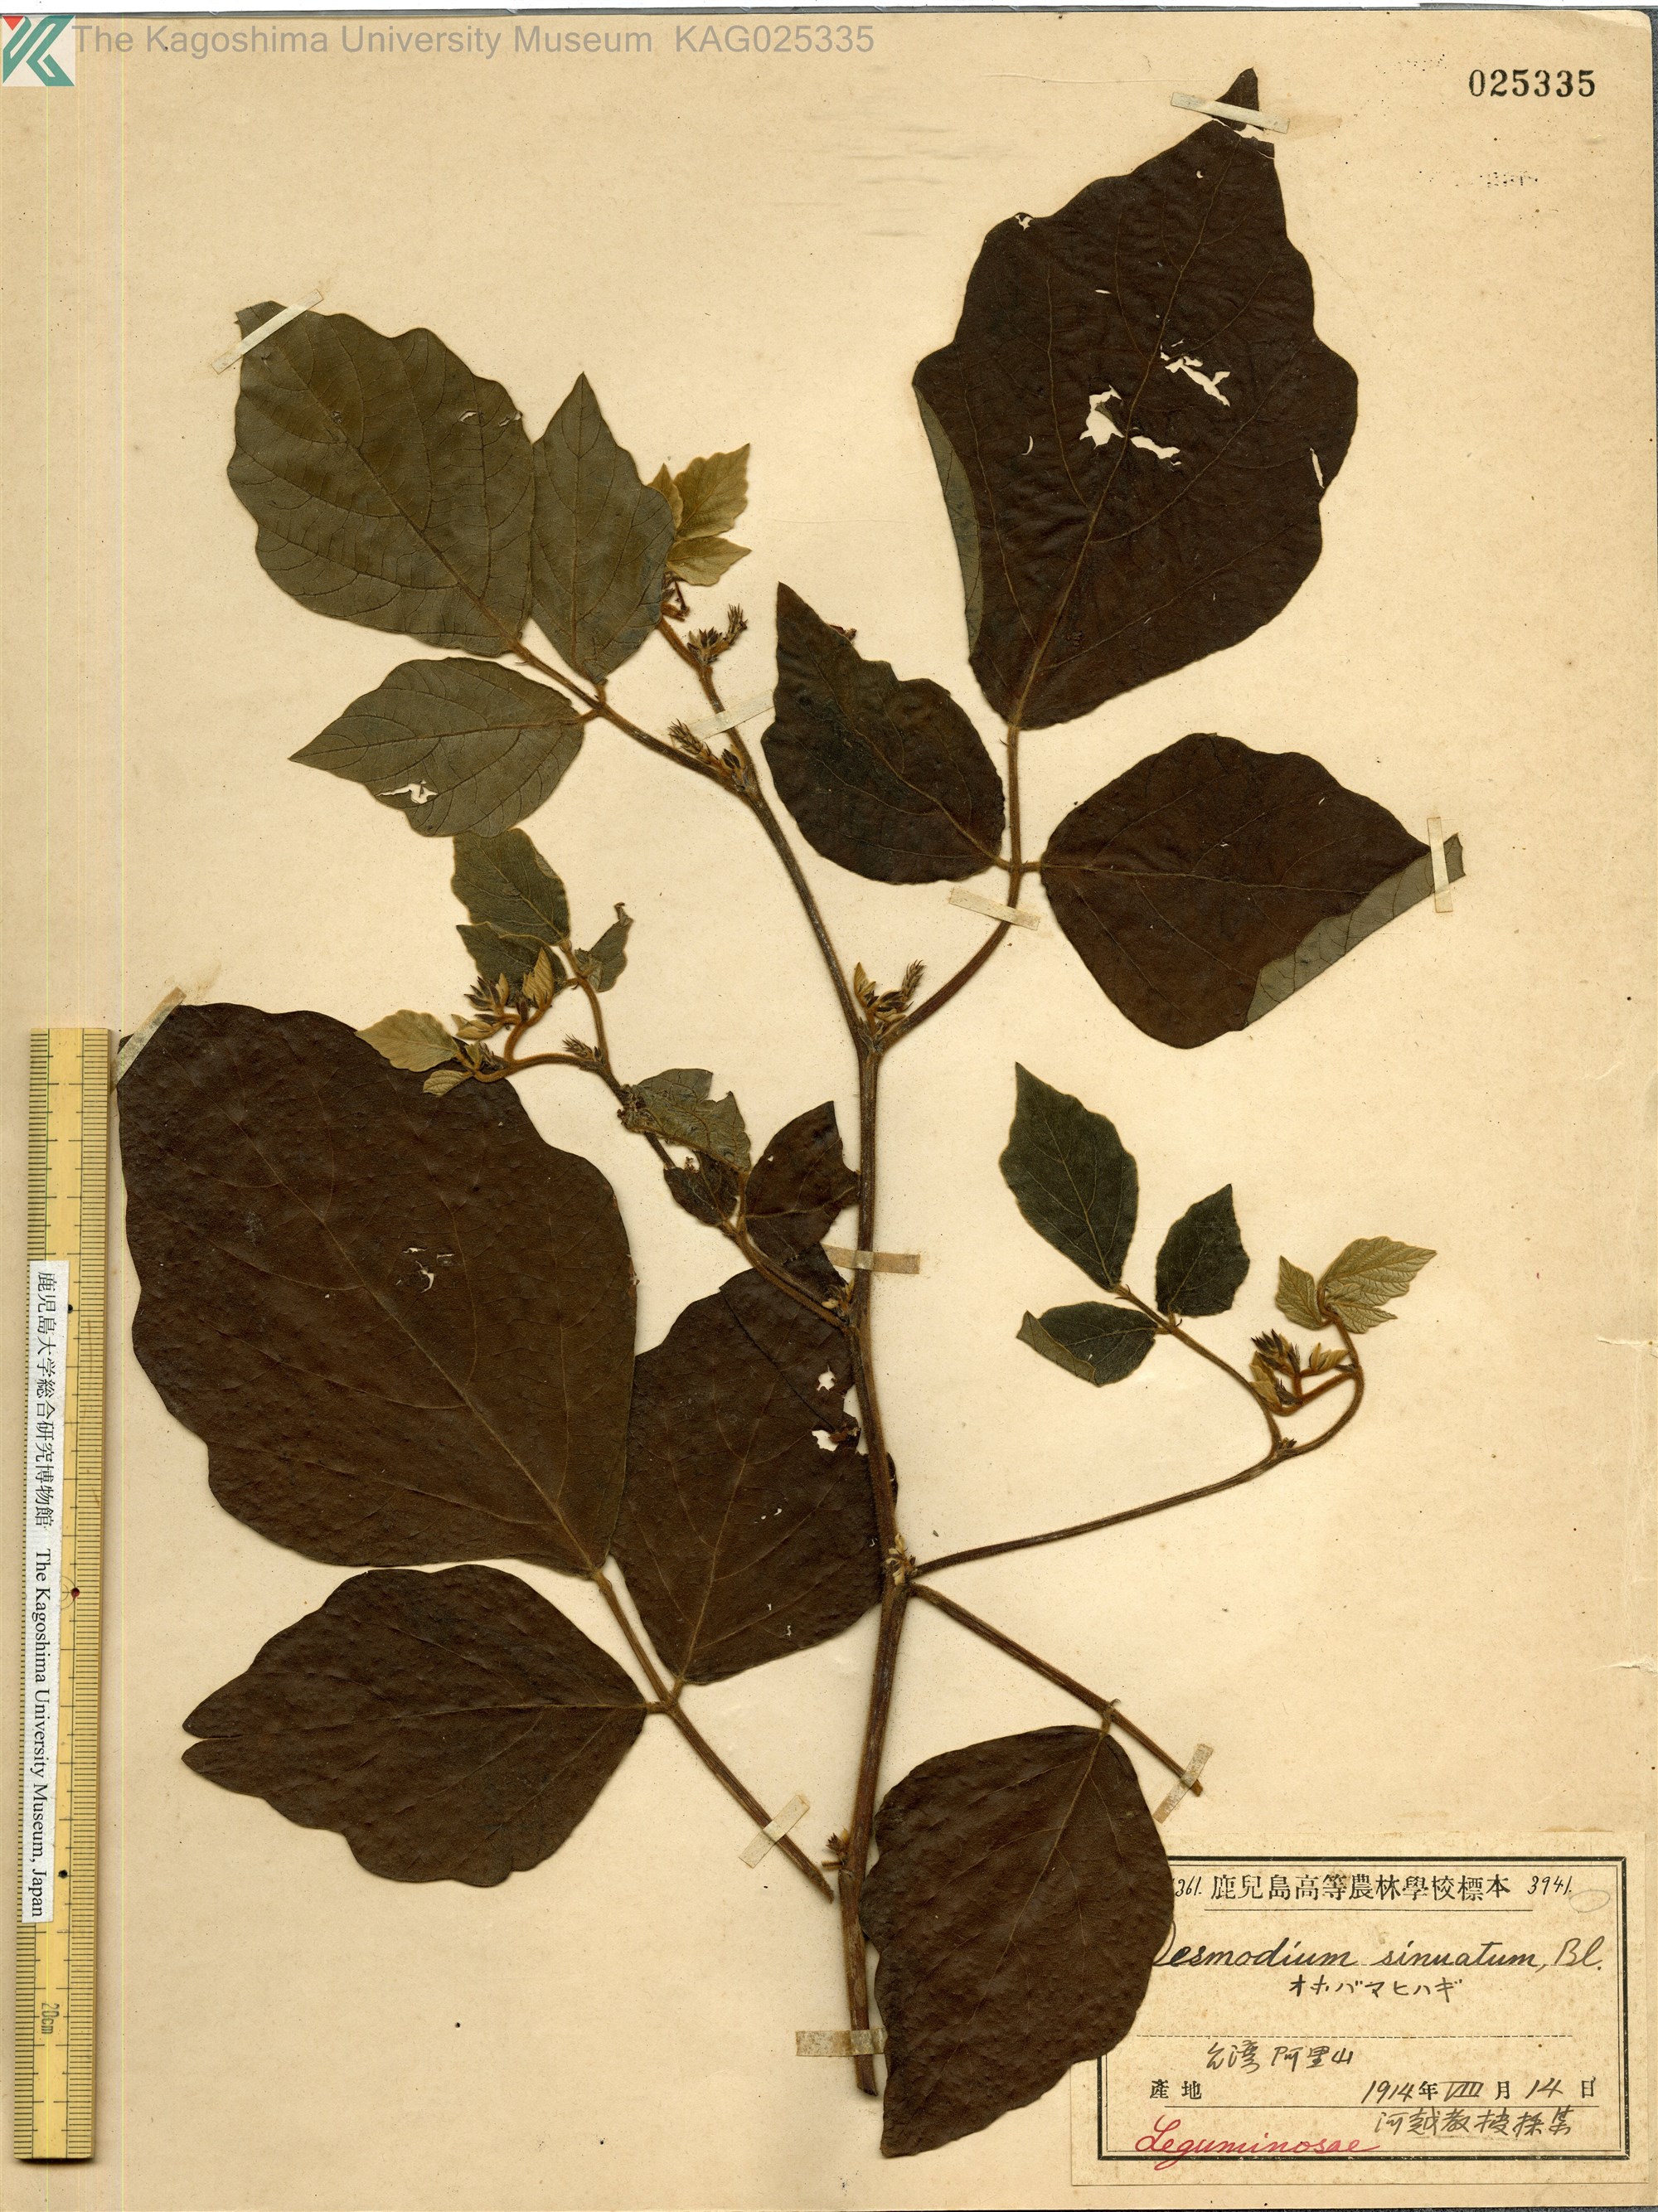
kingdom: Plantae
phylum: Tracheophyta
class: Magnoliopsida
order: Fabales
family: Fabaceae
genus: Puhuaea
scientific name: Puhuaea sequax
